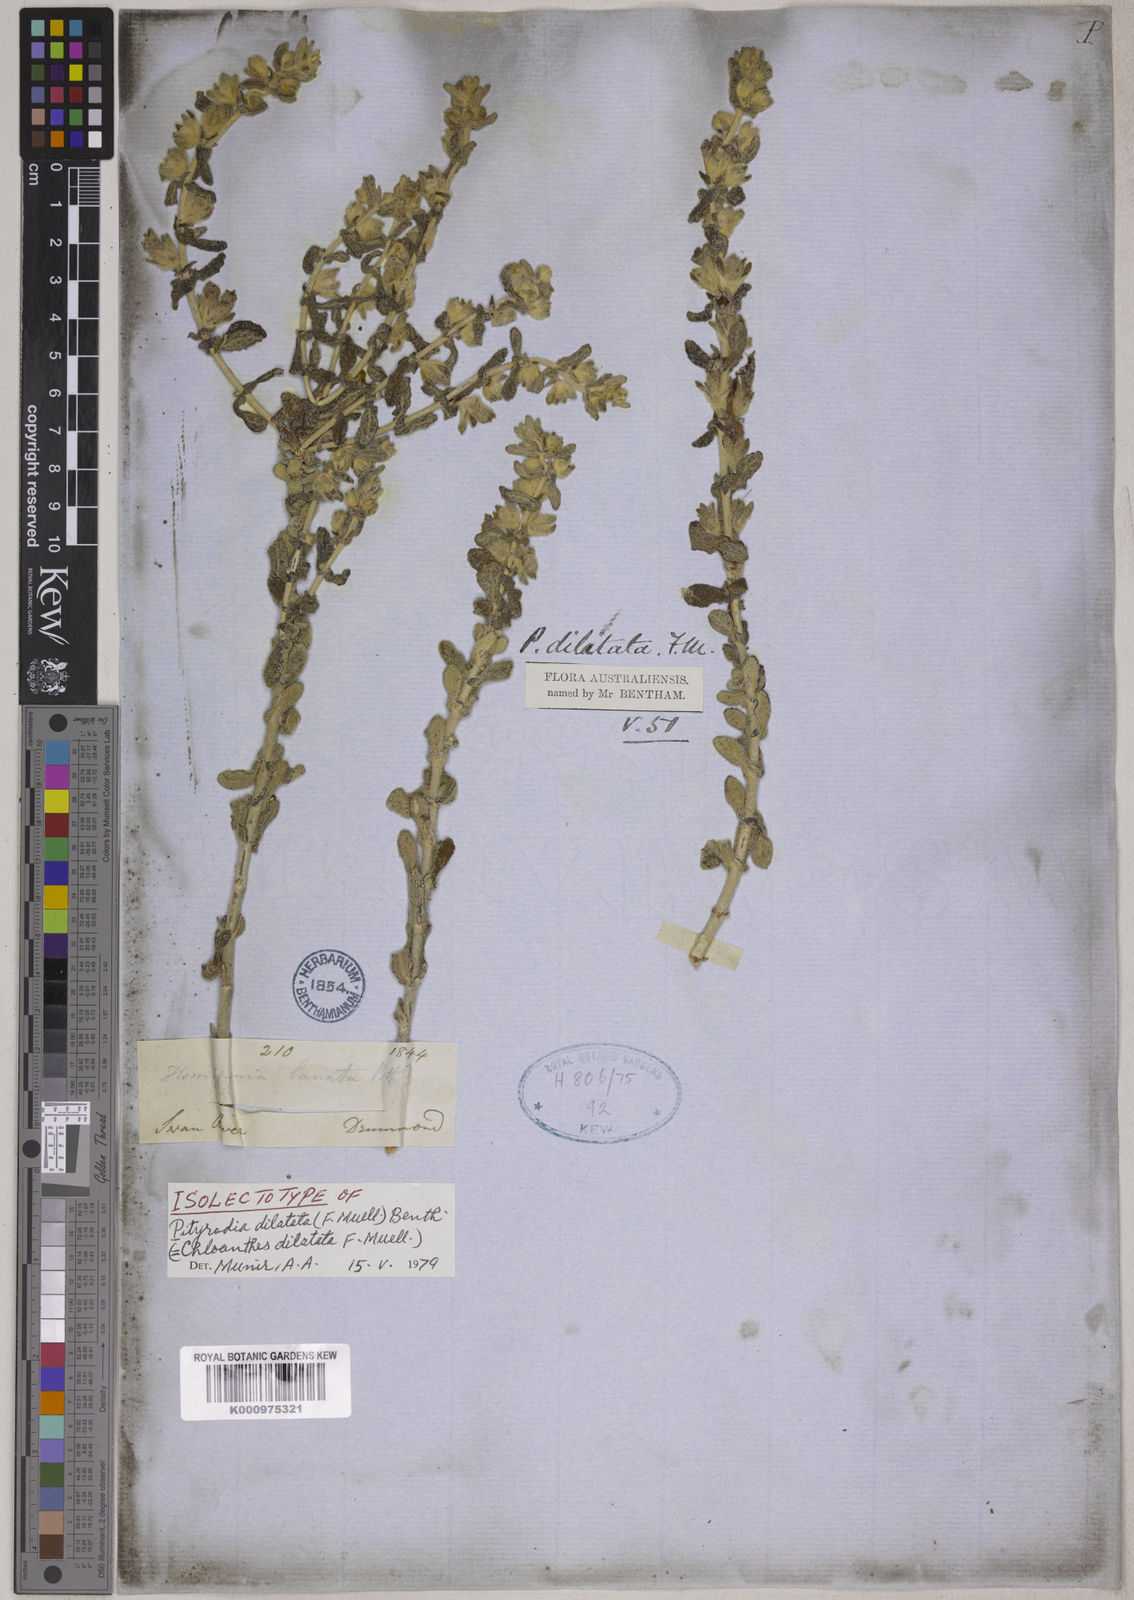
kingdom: Plantae
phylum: Tracheophyta
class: Magnoliopsida
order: Lamiales
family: Lamiaceae
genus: Quoya
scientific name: Quoya dilatata
